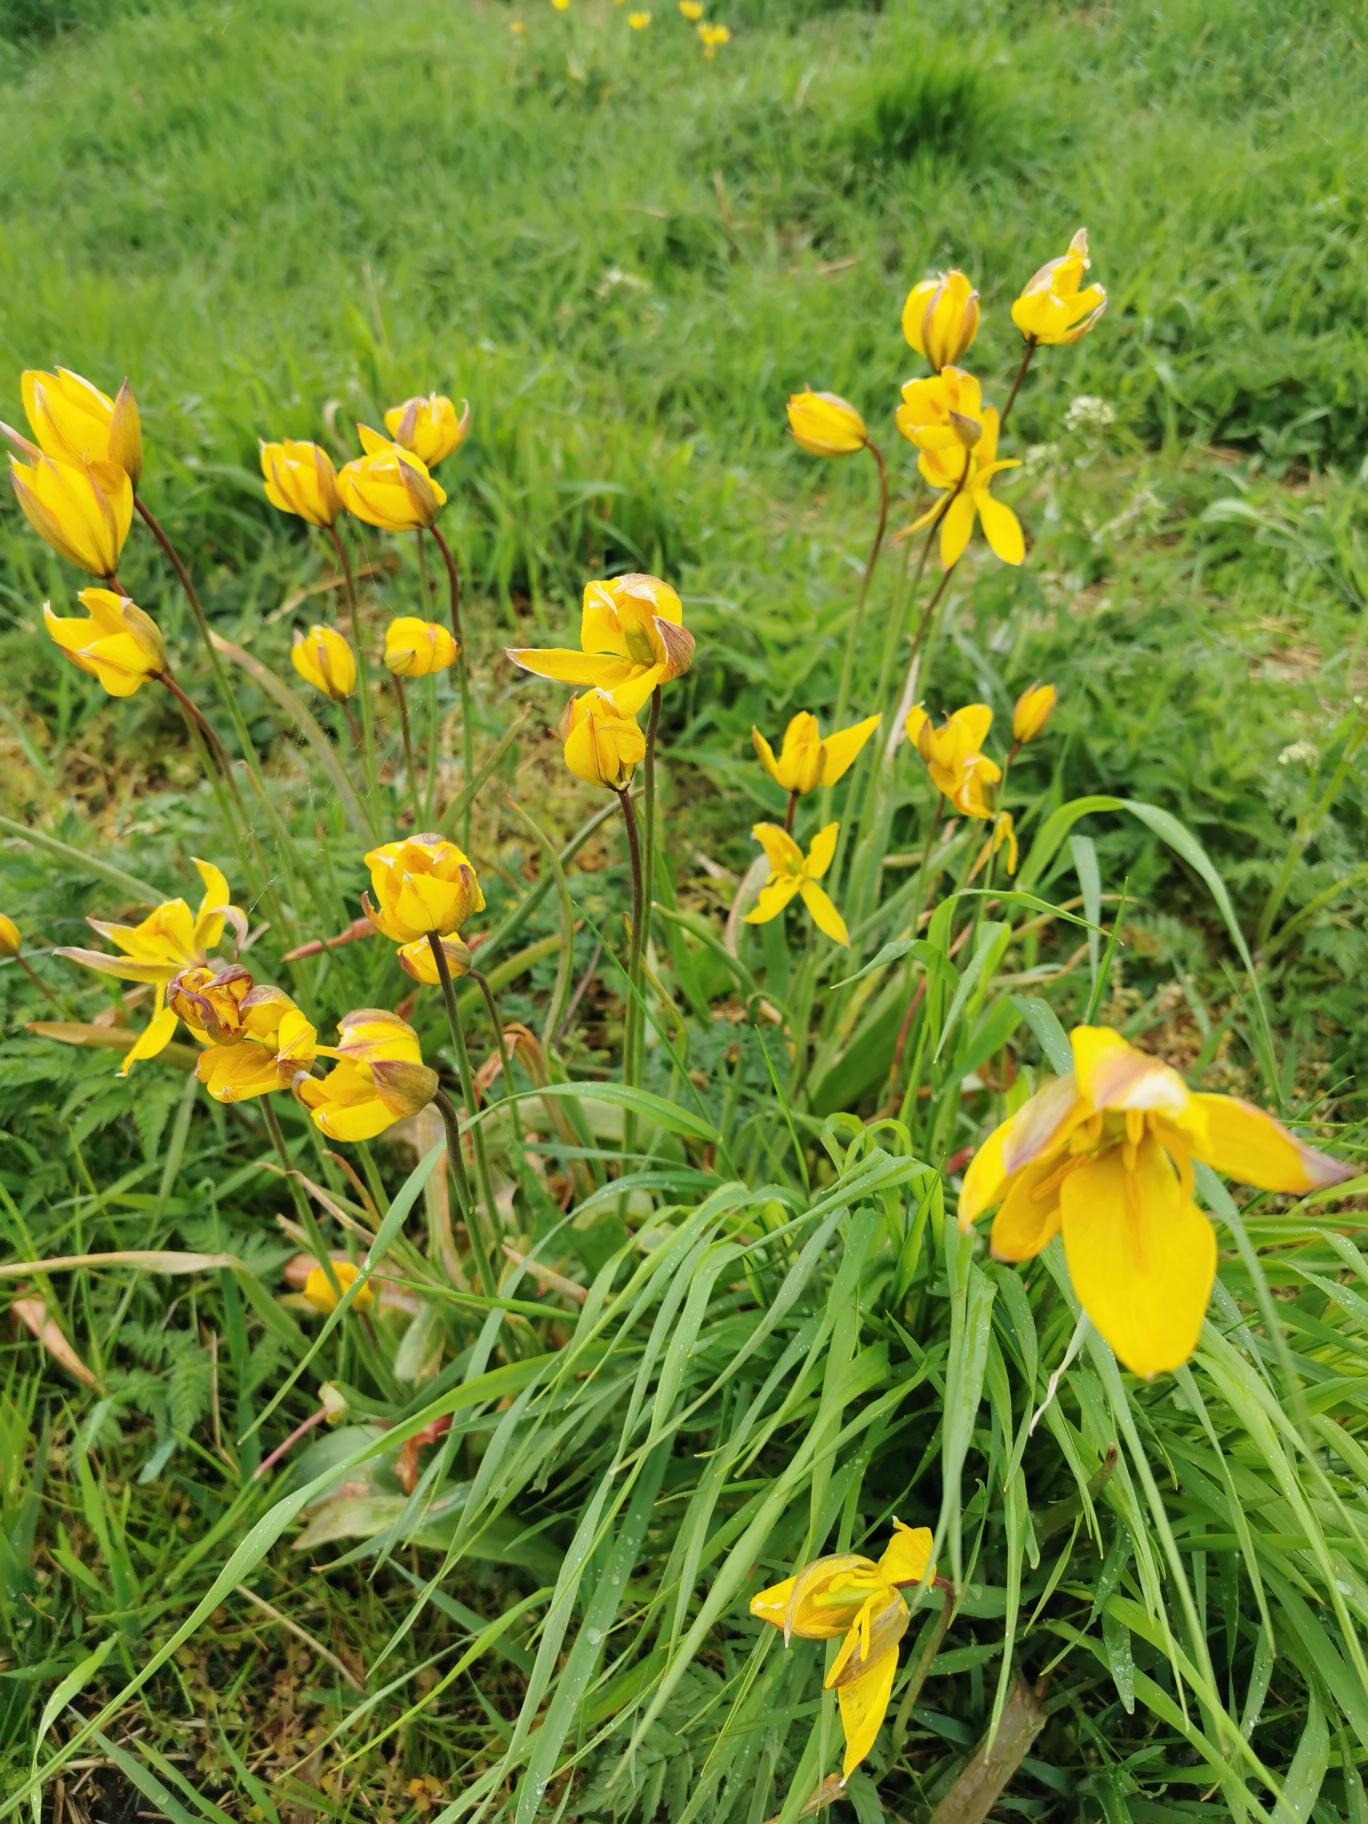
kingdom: Plantae
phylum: Tracheophyta
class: Liliopsida
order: Liliales
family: Liliaceae
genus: Tulipa
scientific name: Tulipa sylvestris
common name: Vild tulipan
